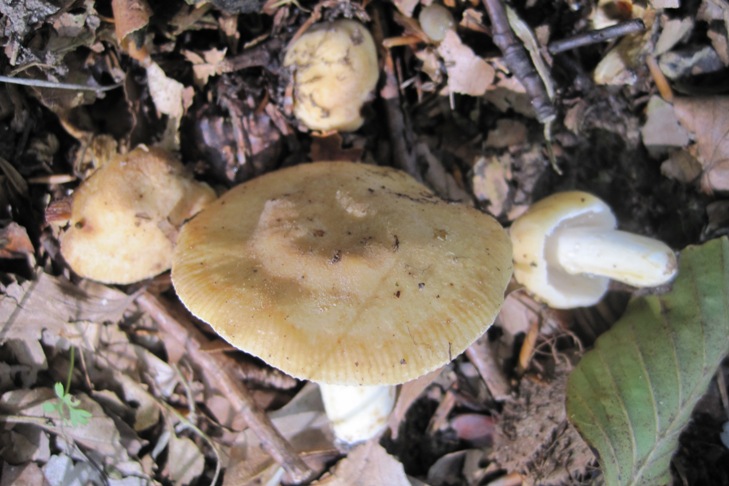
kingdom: Fungi
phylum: Basidiomycota
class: Agaricomycetes
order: Russulales
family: Russulaceae
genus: Russula
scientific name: Russula farinipes
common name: gul kam-skørhat
